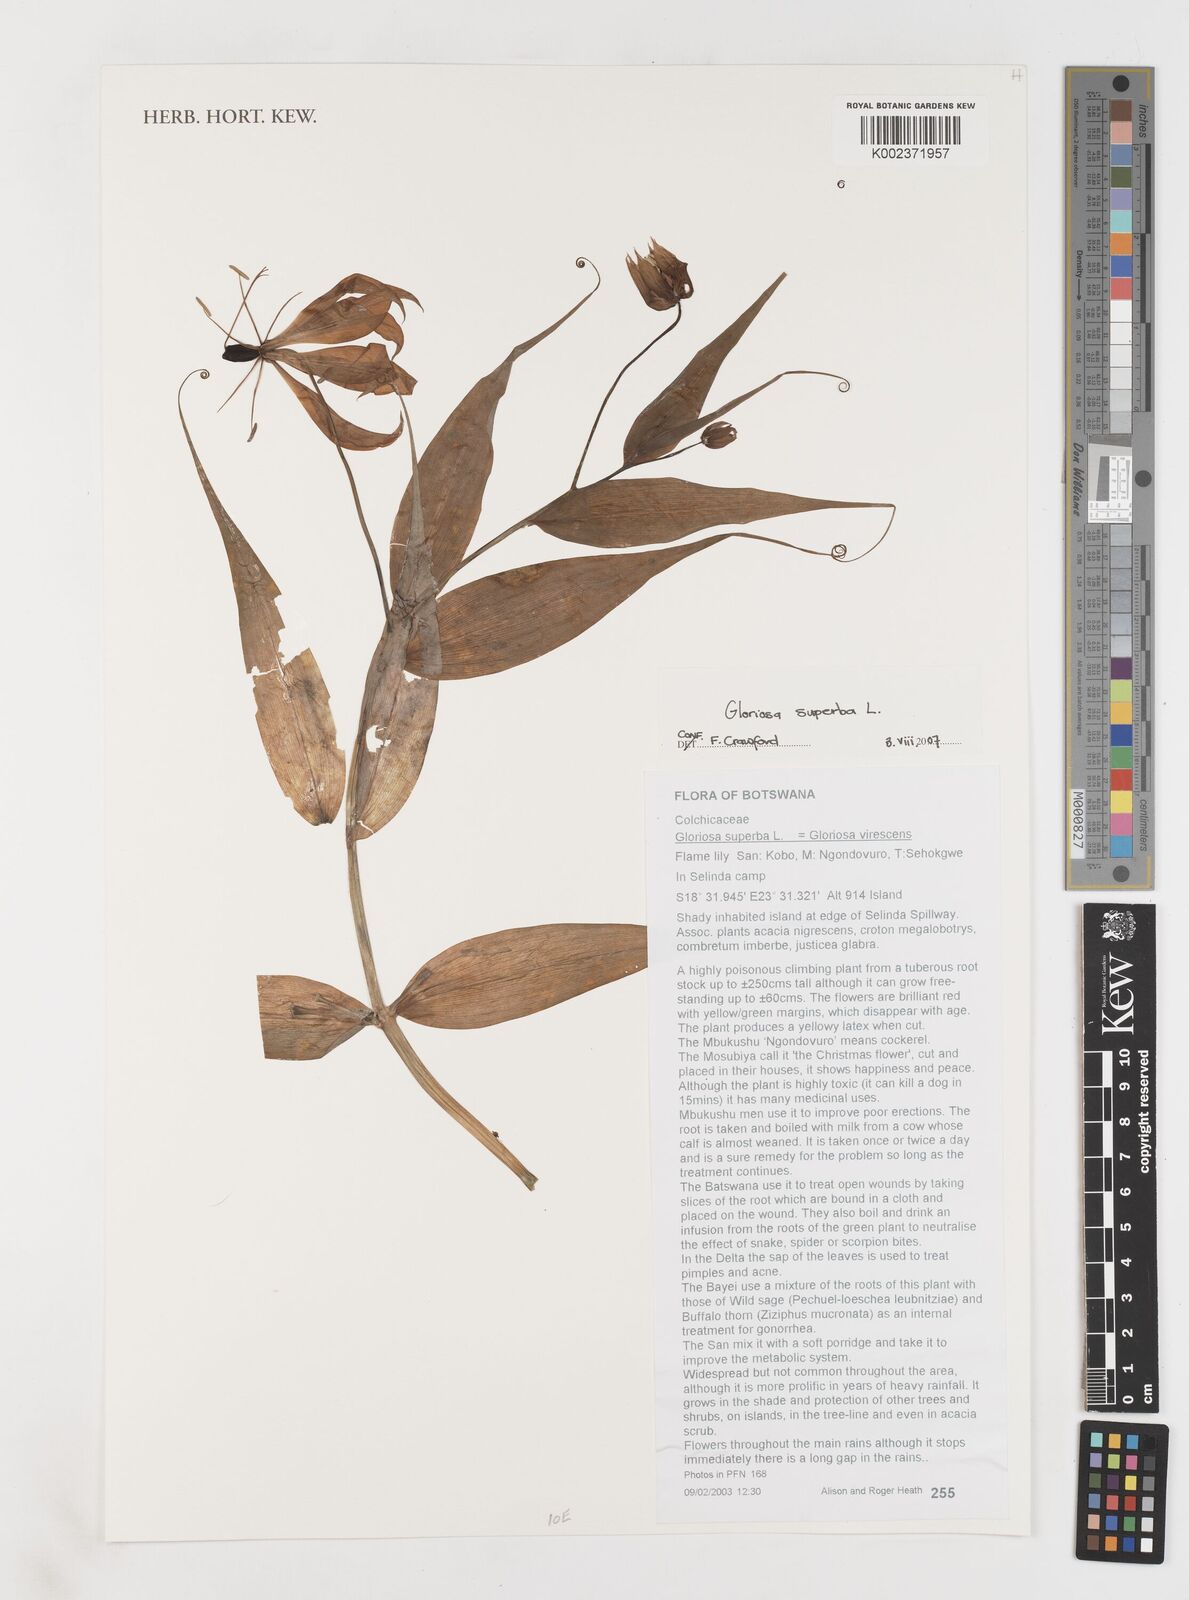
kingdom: Plantae
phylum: Tracheophyta
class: Liliopsida
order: Liliales
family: Colchicaceae
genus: Gloriosa
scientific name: Gloriosa simplex
